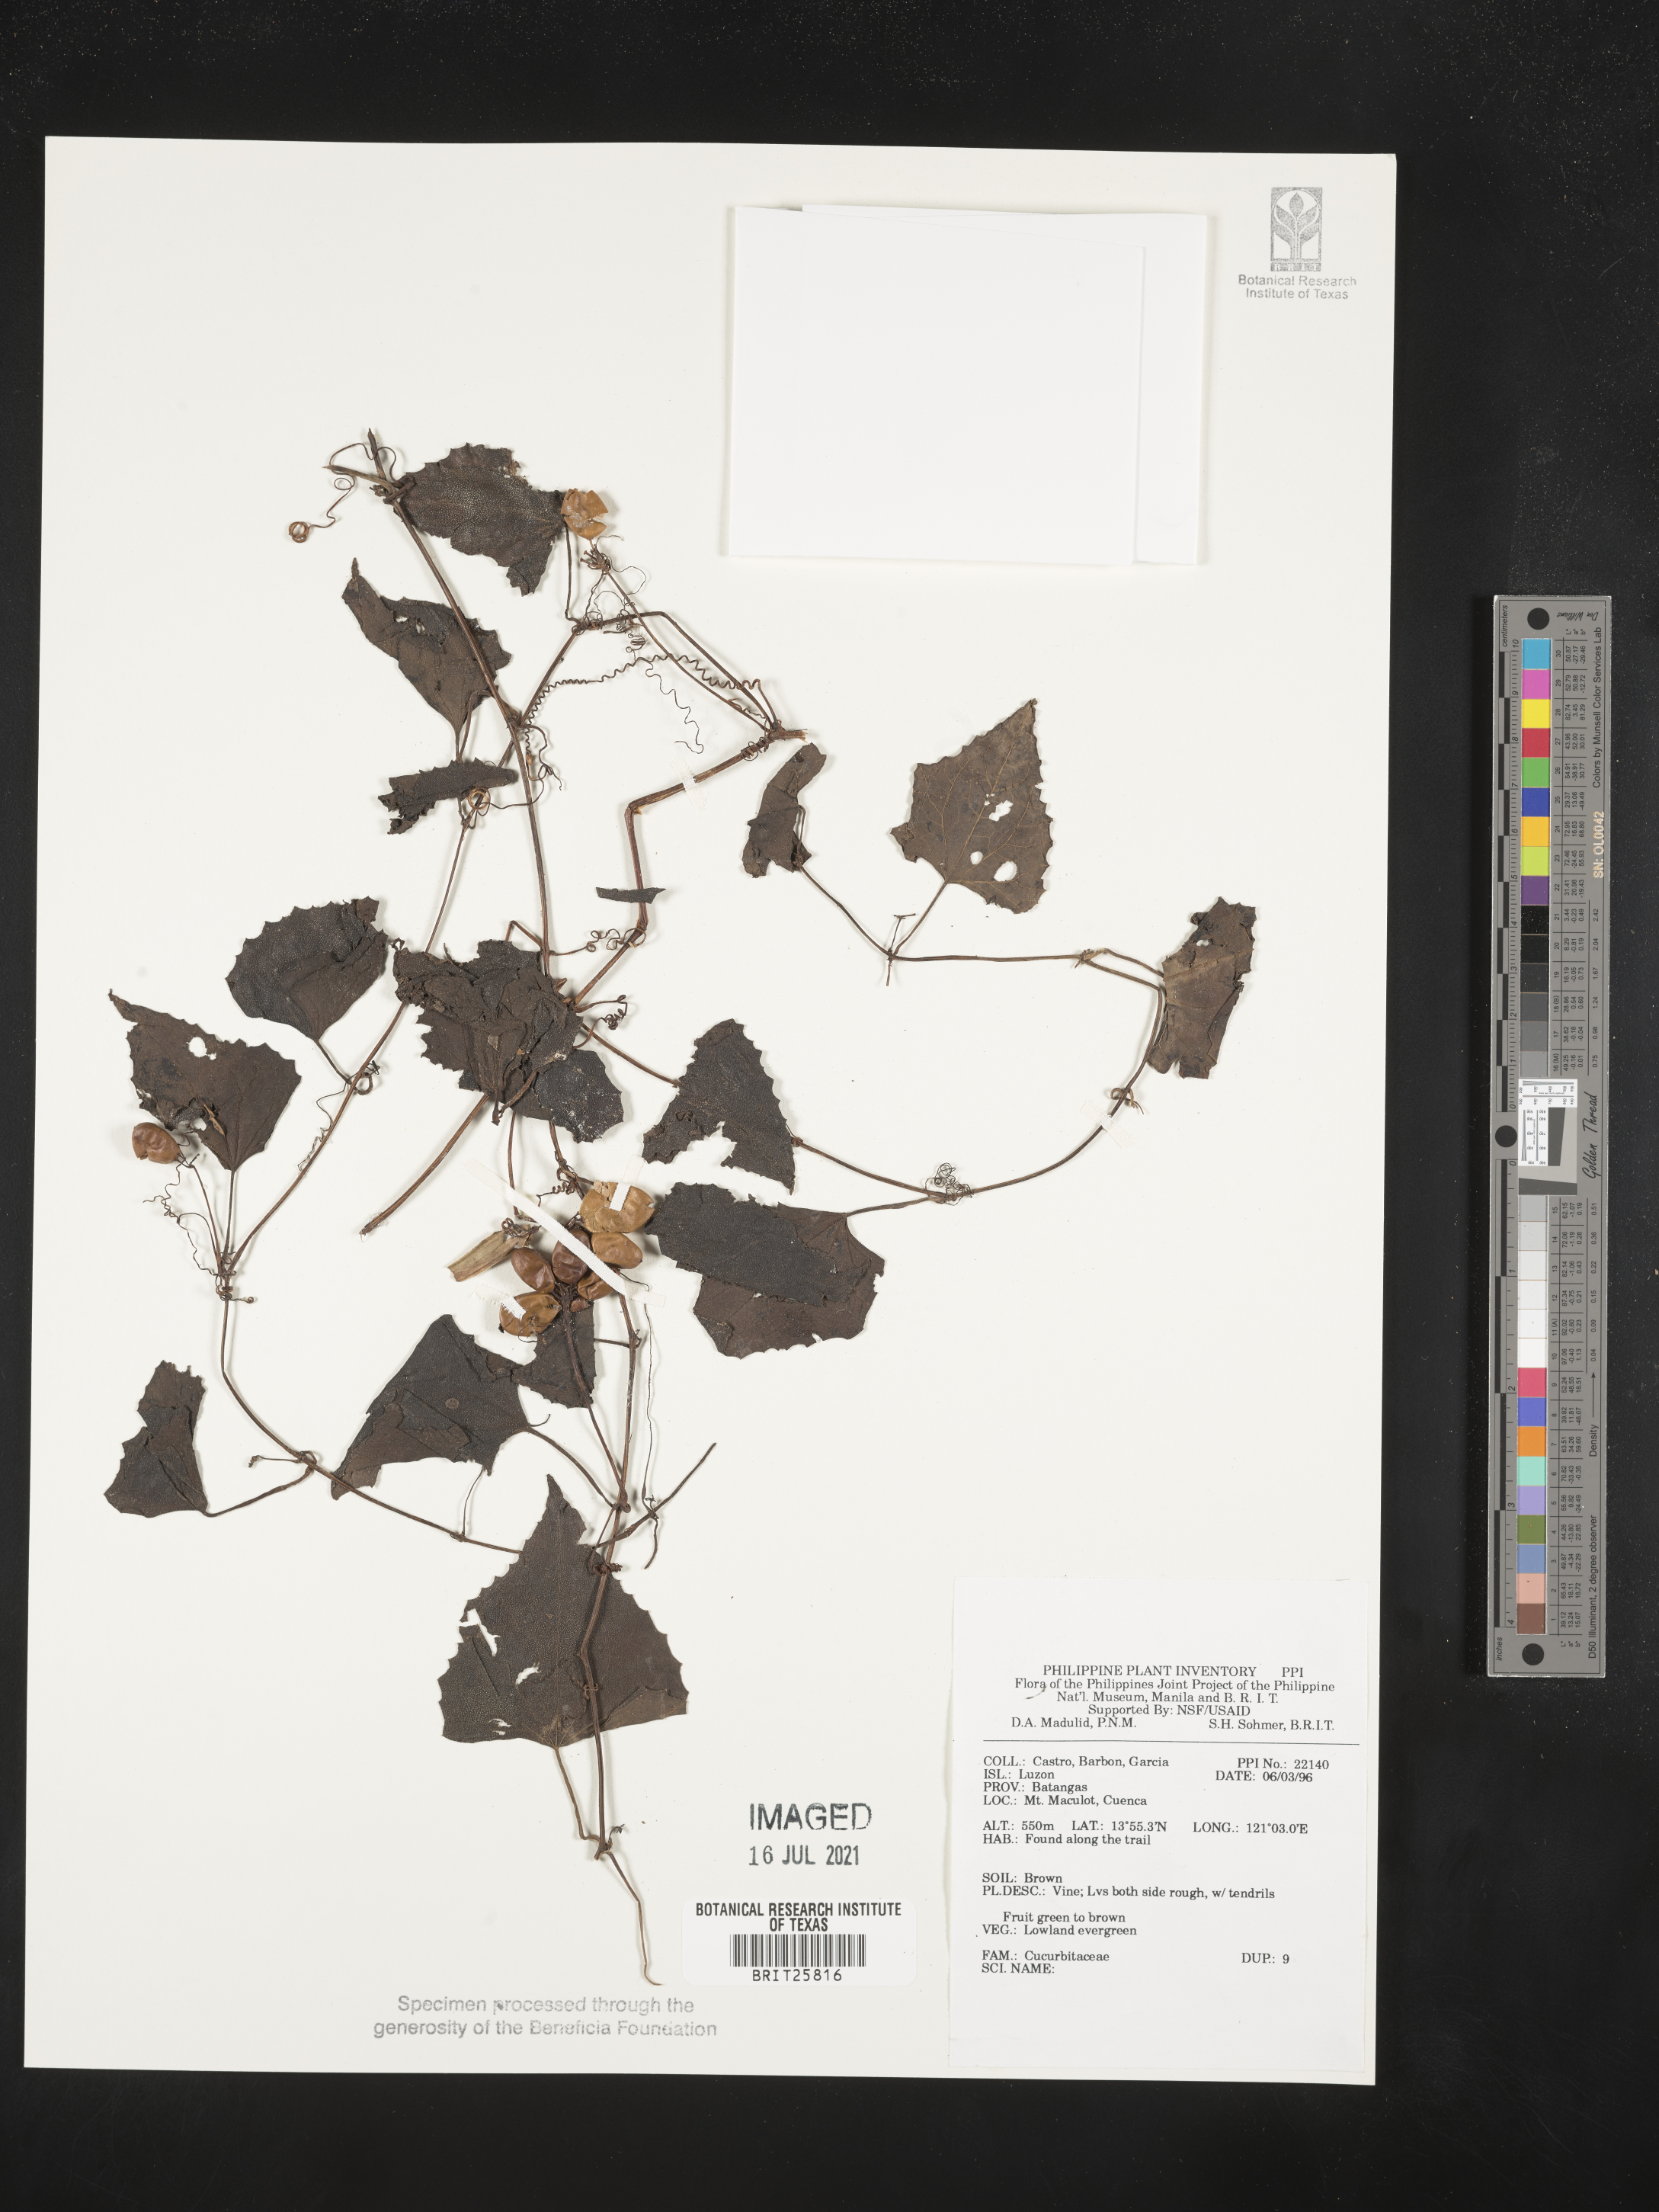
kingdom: Plantae
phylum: Tracheophyta
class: Magnoliopsida
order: Cucurbitales
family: Cucurbitaceae
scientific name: Cucurbitaceae
